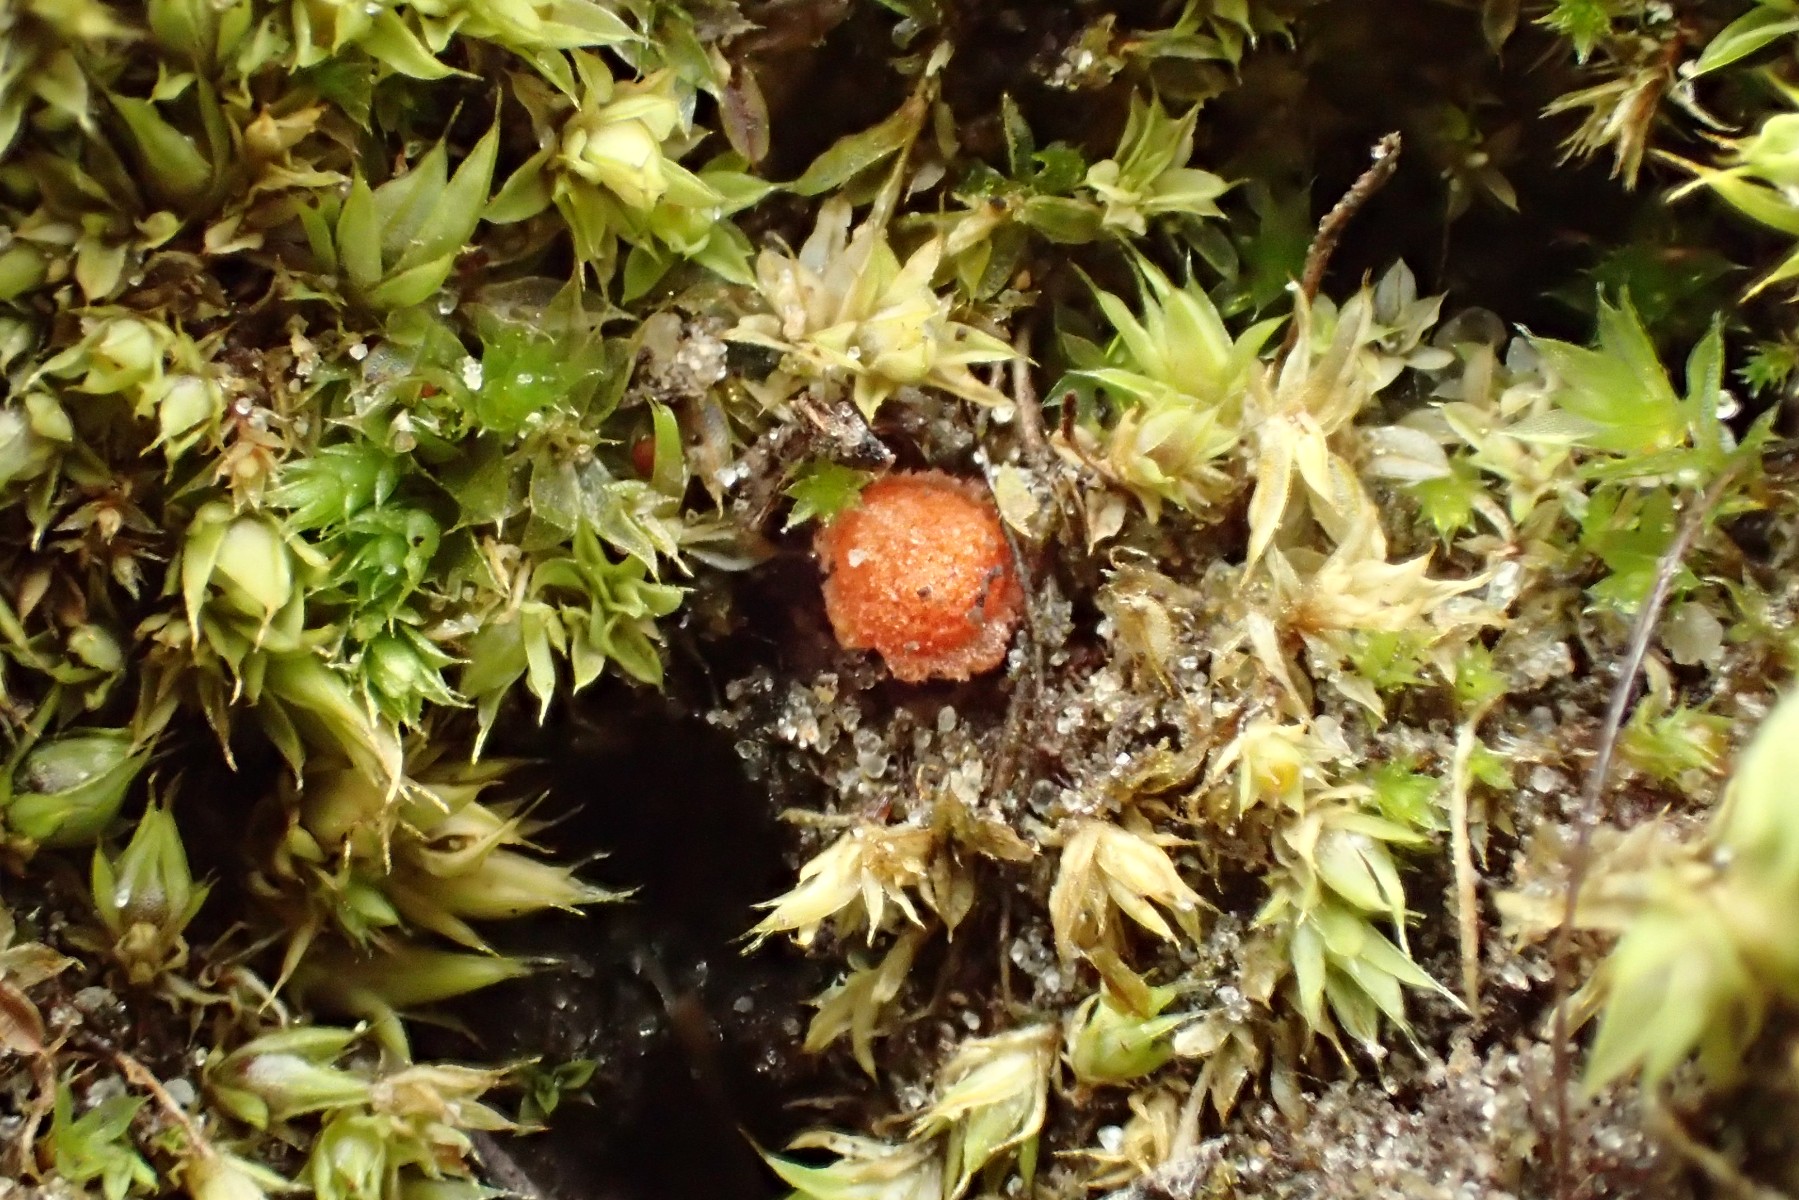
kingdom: Fungi
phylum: Ascomycota
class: Pezizomycetes
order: Pezizales
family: Pyronemataceae
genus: Lamprospora
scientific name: Lamprospora miniata
